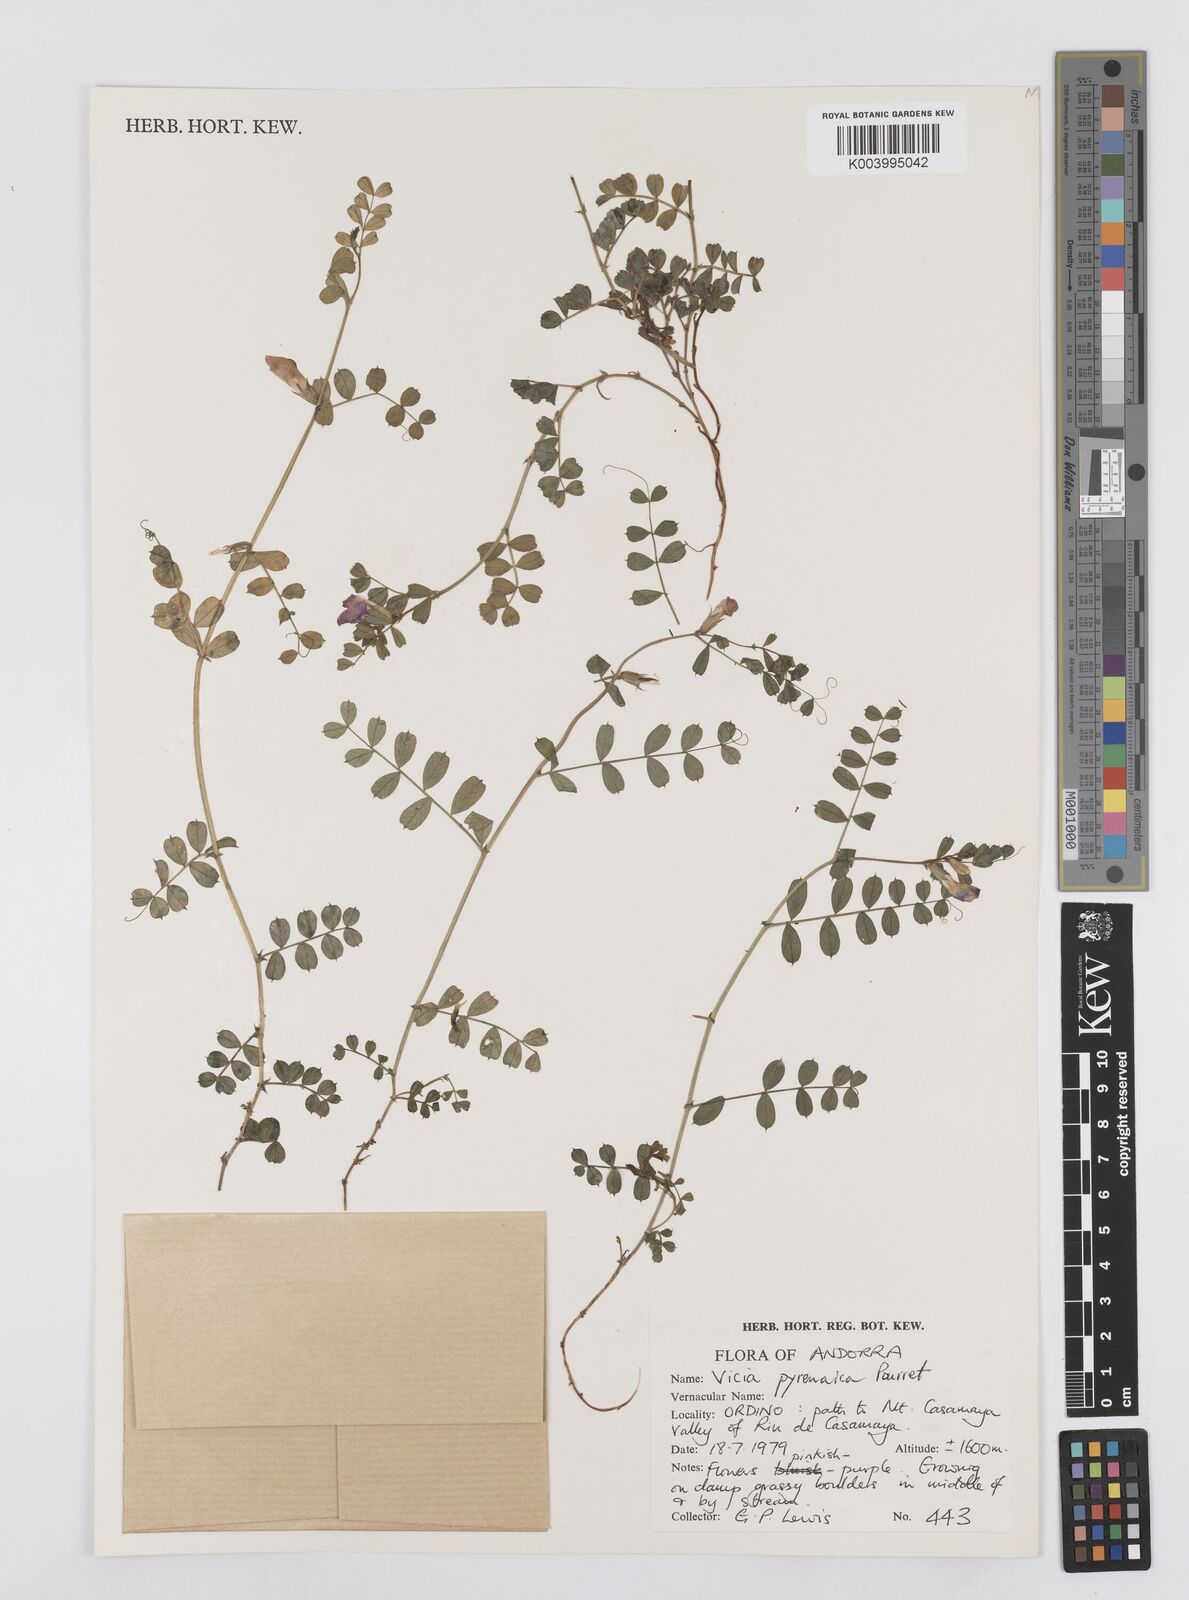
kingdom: Plantae
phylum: Tracheophyta
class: Magnoliopsida
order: Fabales
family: Fabaceae
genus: Vicia
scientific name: Vicia pyrenaica
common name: Pyrenean vetch
